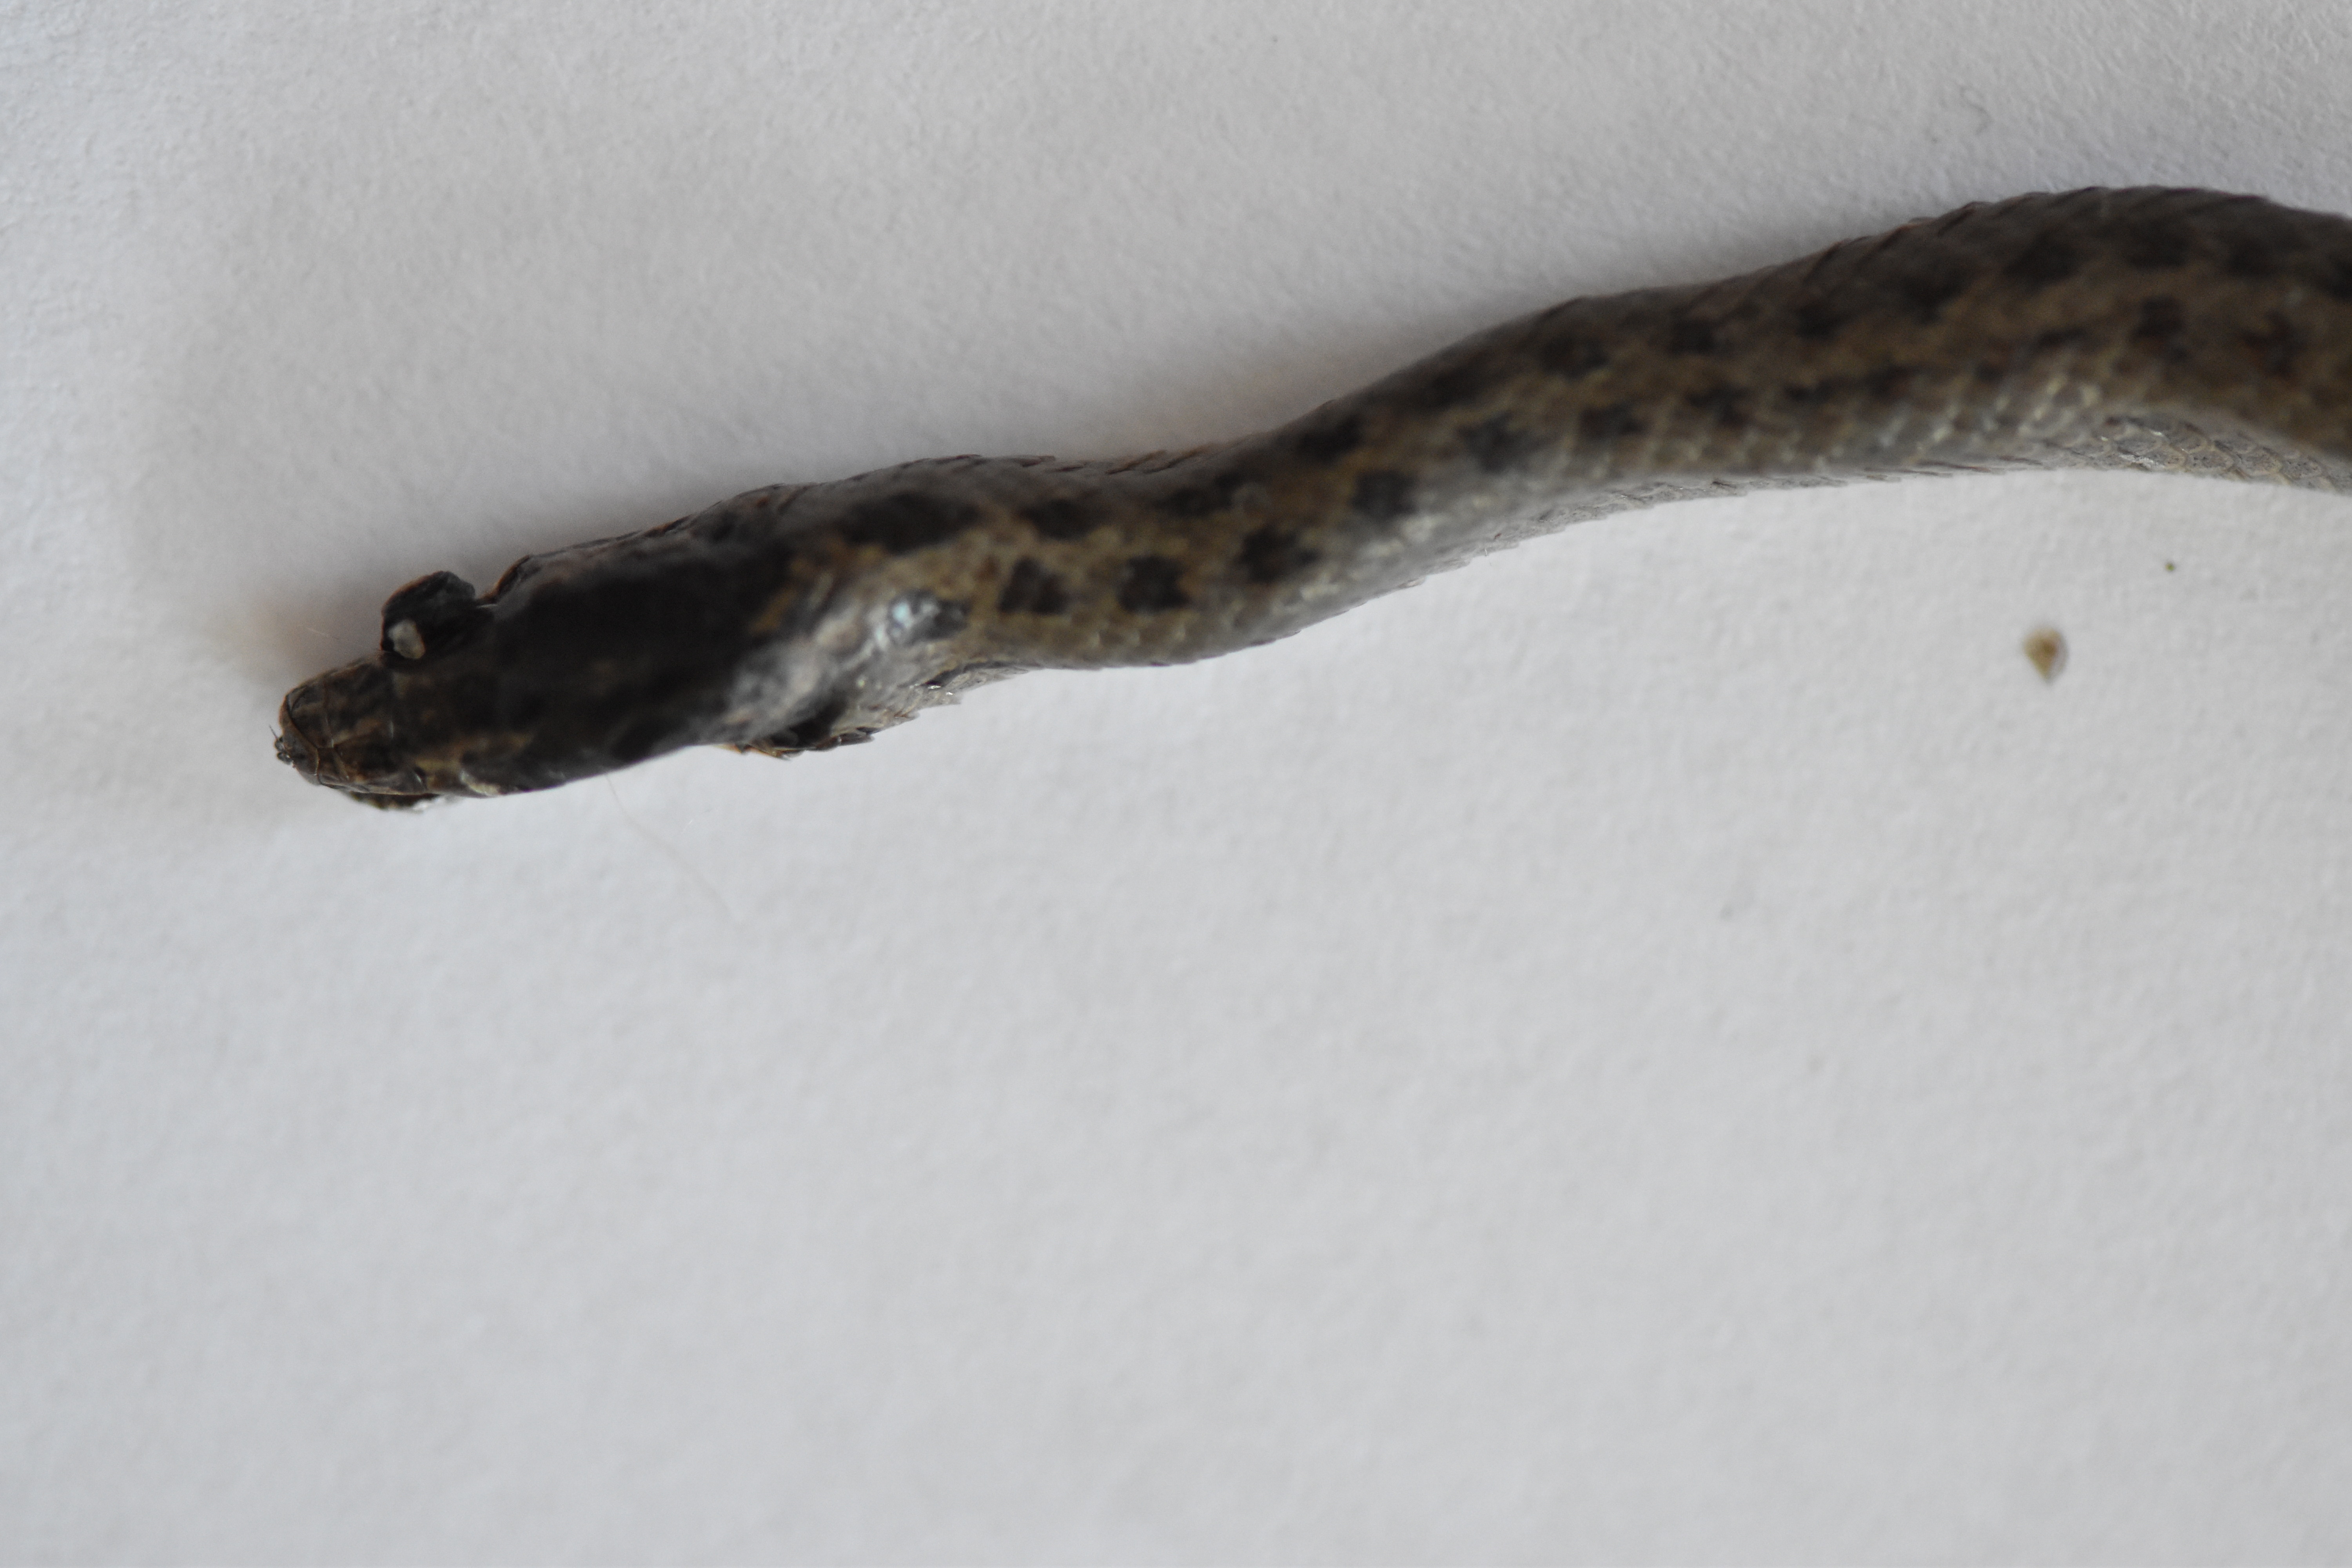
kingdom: Animalia
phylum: Chordata
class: Squamata
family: Colubridae
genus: Coronella
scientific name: Coronella austriaca
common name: Smooth snake
